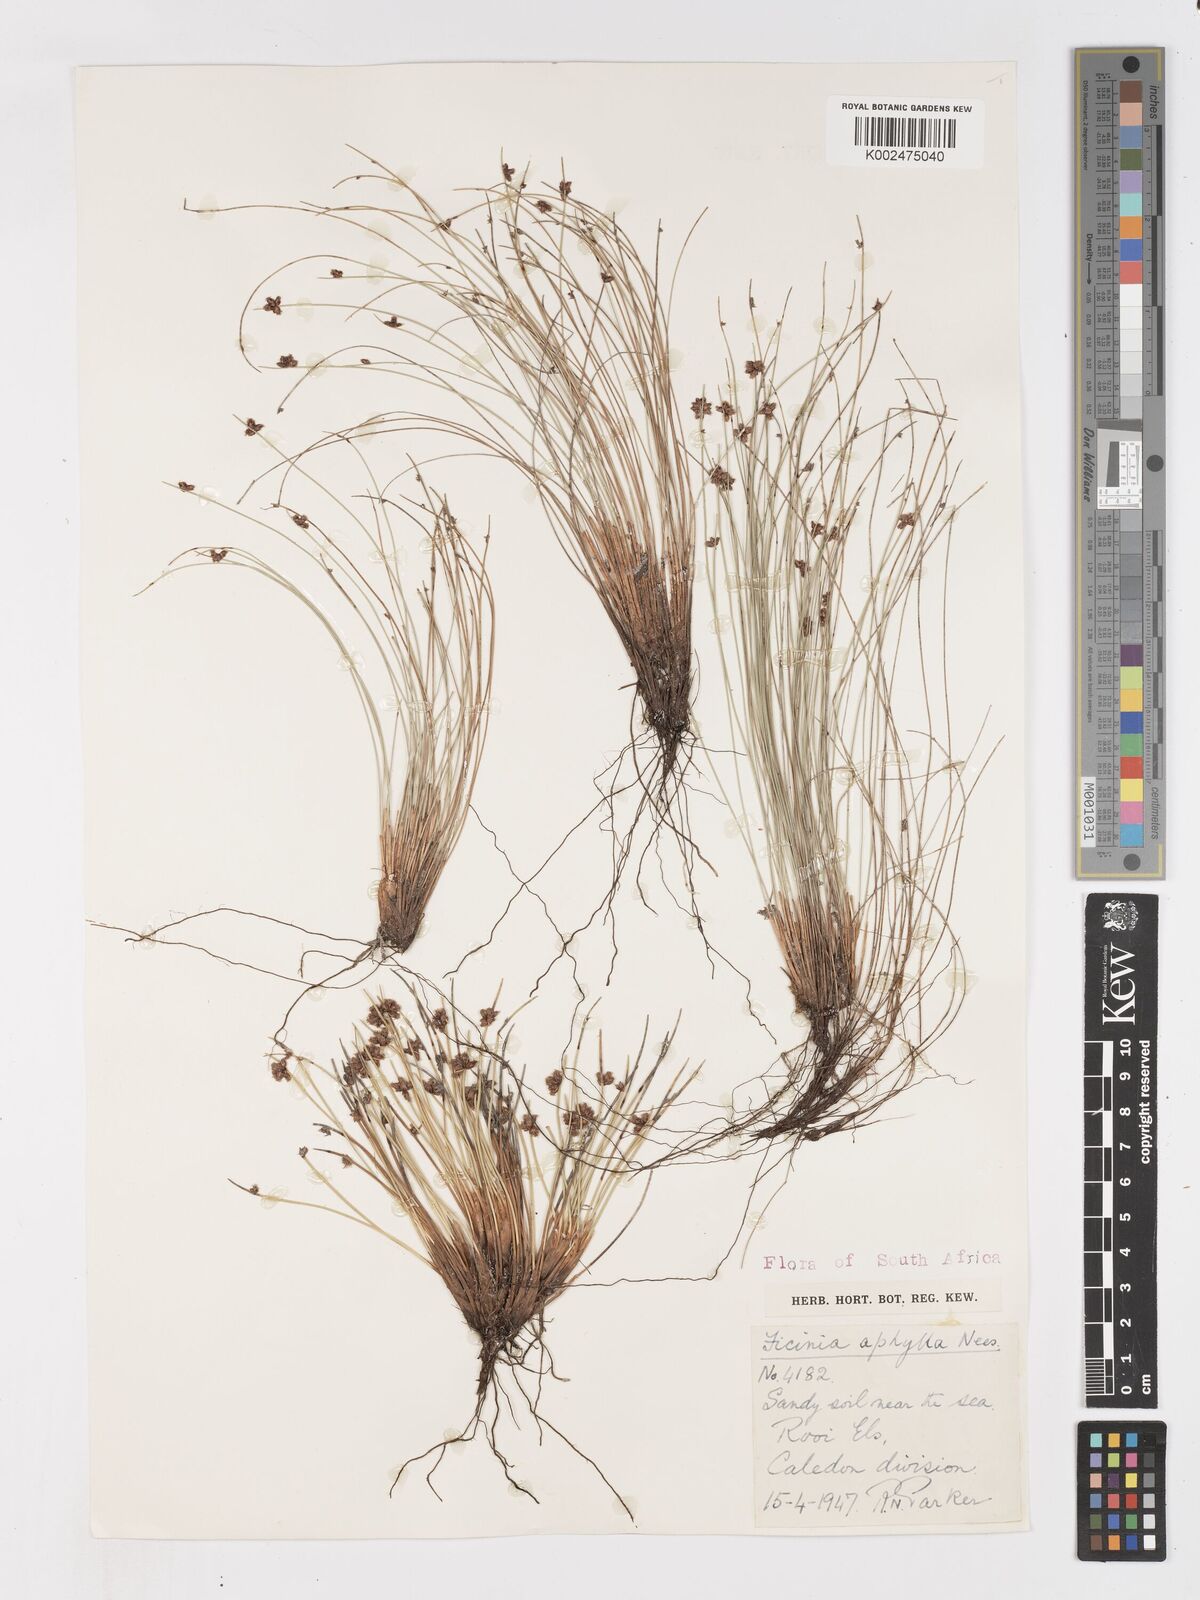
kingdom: Plantae
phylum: Tracheophyta
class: Liliopsida
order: Poales
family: Cyperaceae
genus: Ficinia
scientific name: Ficinia lateralis
